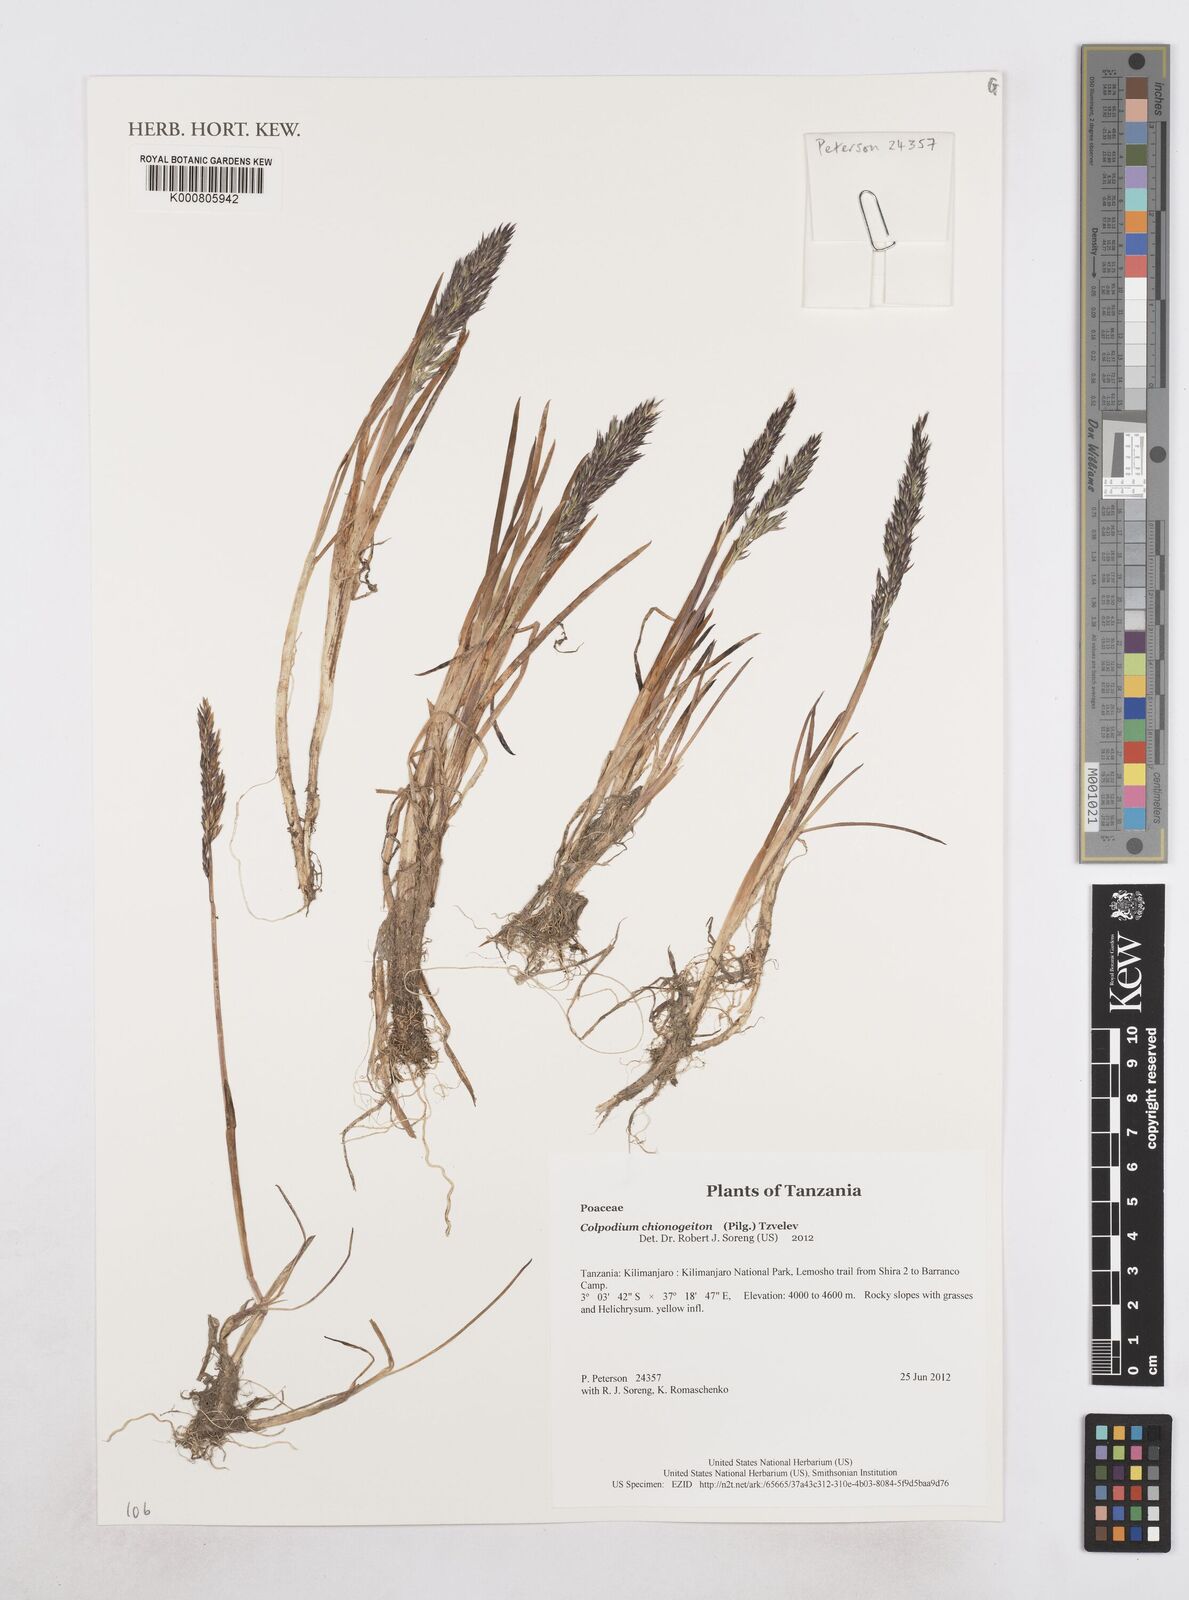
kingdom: Plantae
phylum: Tracheophyta
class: Liliopsida
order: Poales
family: Poaceae
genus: Colpodium
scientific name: Colpodium chionogeiton
